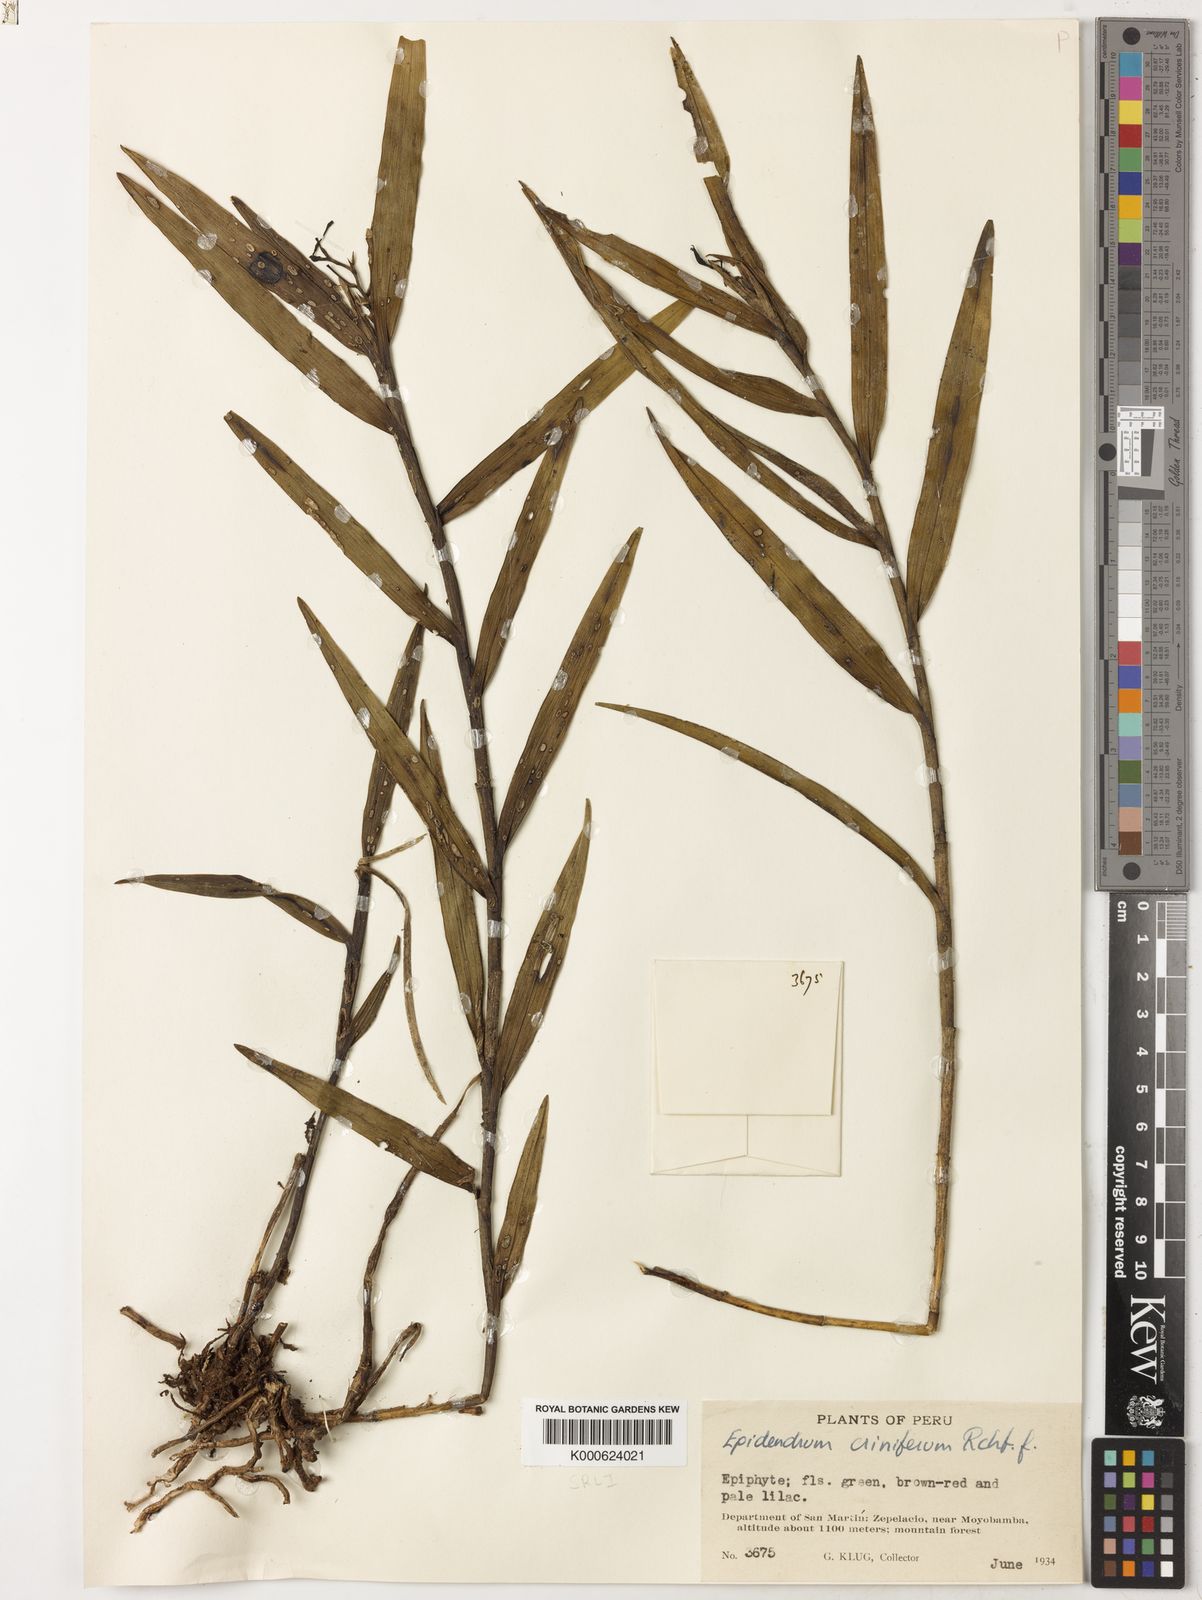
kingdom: Plantae
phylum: Tracheophyta
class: Liliopsida
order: Asparagales
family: Orchidaceae
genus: Epidendrum
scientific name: Epidendrum criniferum
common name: Bract carrying epidendrum
